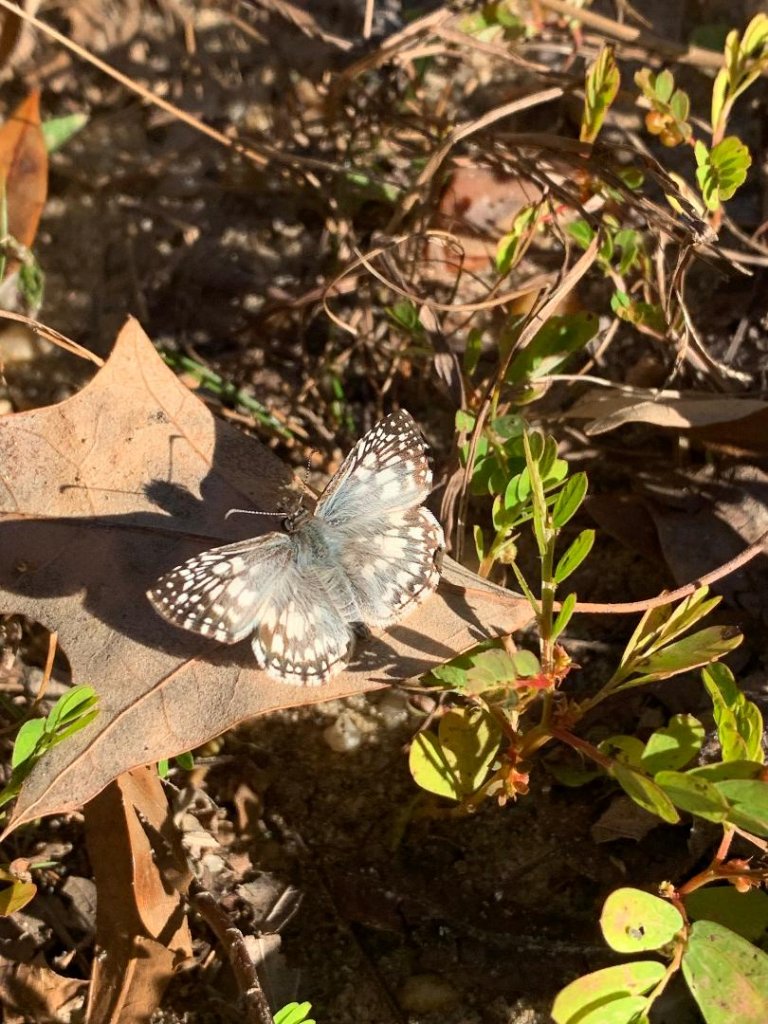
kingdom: Animalia
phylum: Arthropoda
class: Insecta
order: Lepidoptera
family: Hesperiidae
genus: Pyrgus
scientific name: Pyrgus oileus
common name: Tropical Checkered-Skipper
